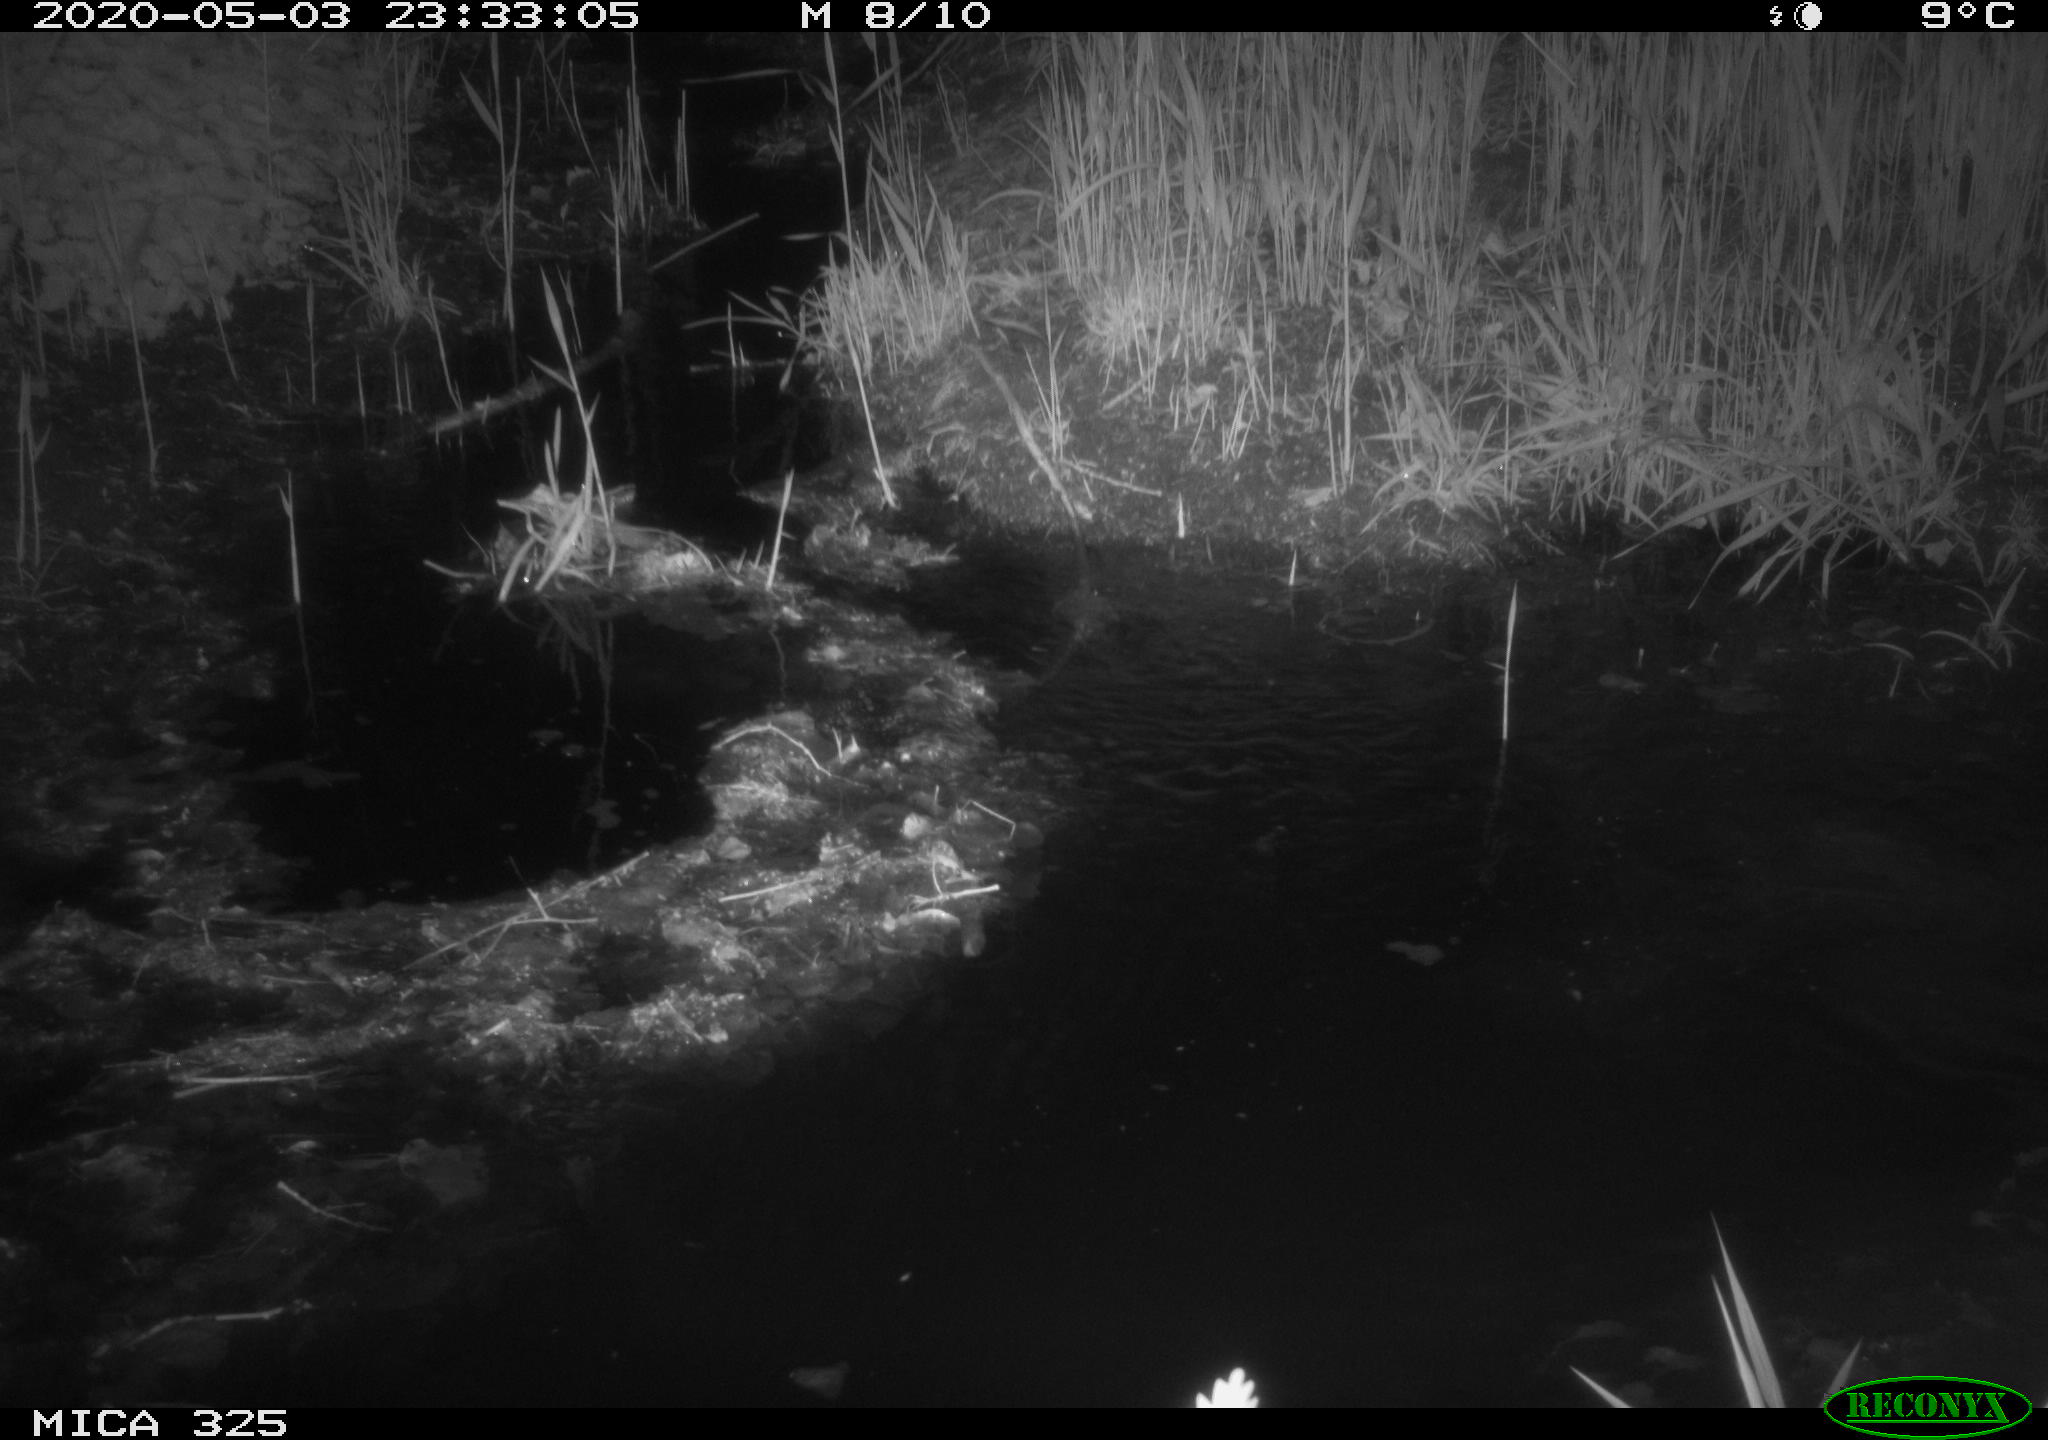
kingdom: Animalia
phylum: Chordata
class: Mammalia
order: Rodentia
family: Myocastoridae
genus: Myocastor
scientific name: Myocastor coypus
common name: Coypu
